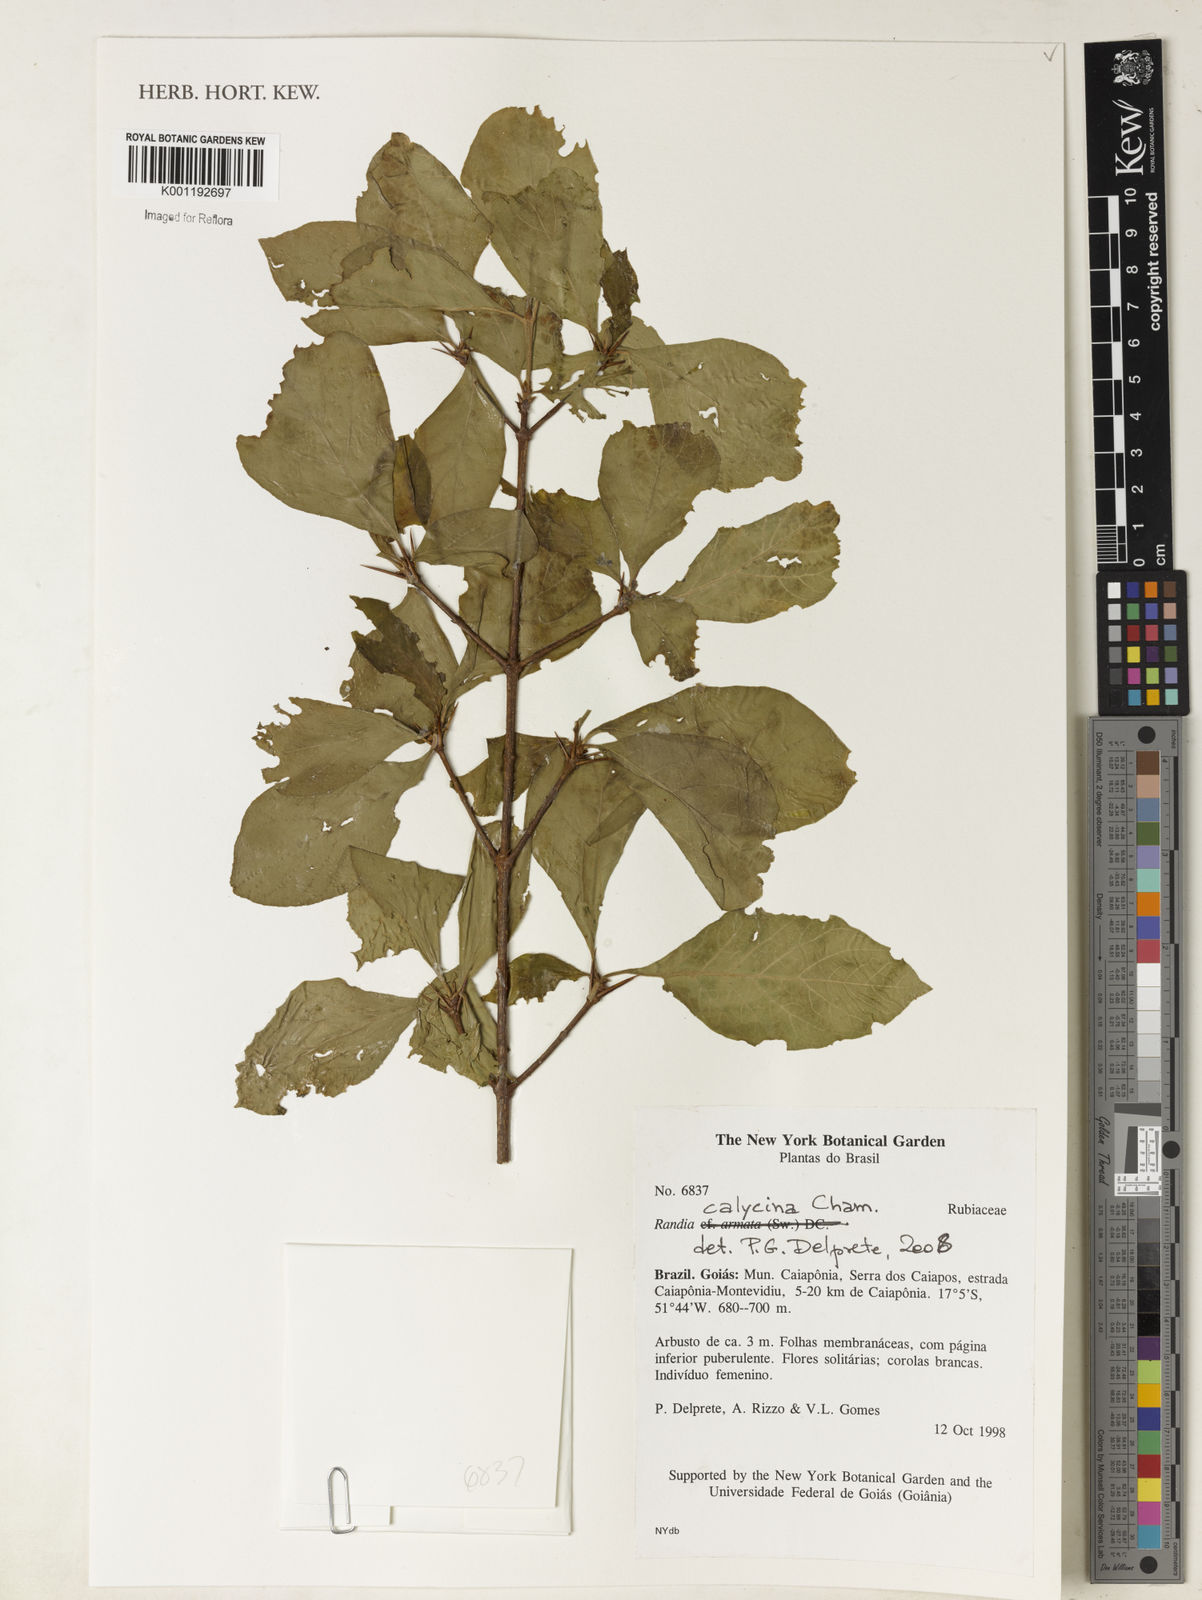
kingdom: Plantae
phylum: Tracheophyta
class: Magnoliopsida
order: Gentianales
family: Rubiaceae
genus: Randia
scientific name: Randia calycina
